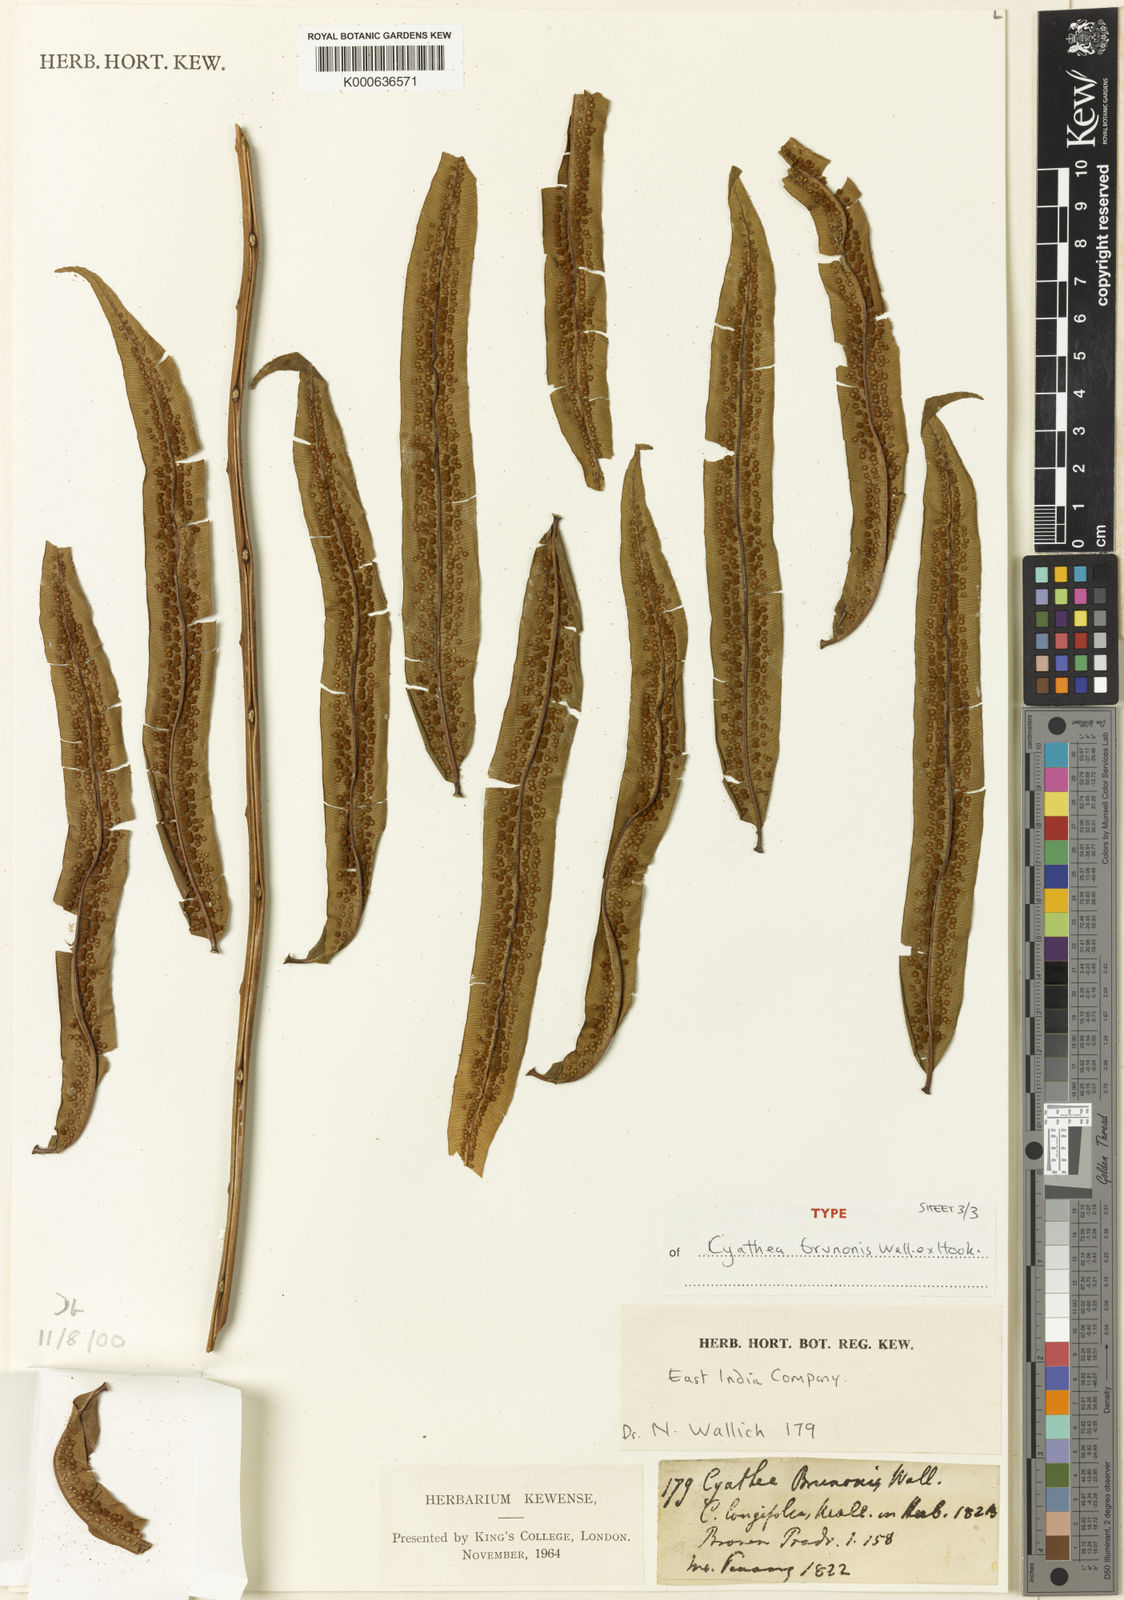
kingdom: Plantae
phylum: Tracheophyta
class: Polypodiopsida
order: Cyatheales
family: Cyatheaceae
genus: Sphaeropteris
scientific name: Sphaeropteris moluccana
